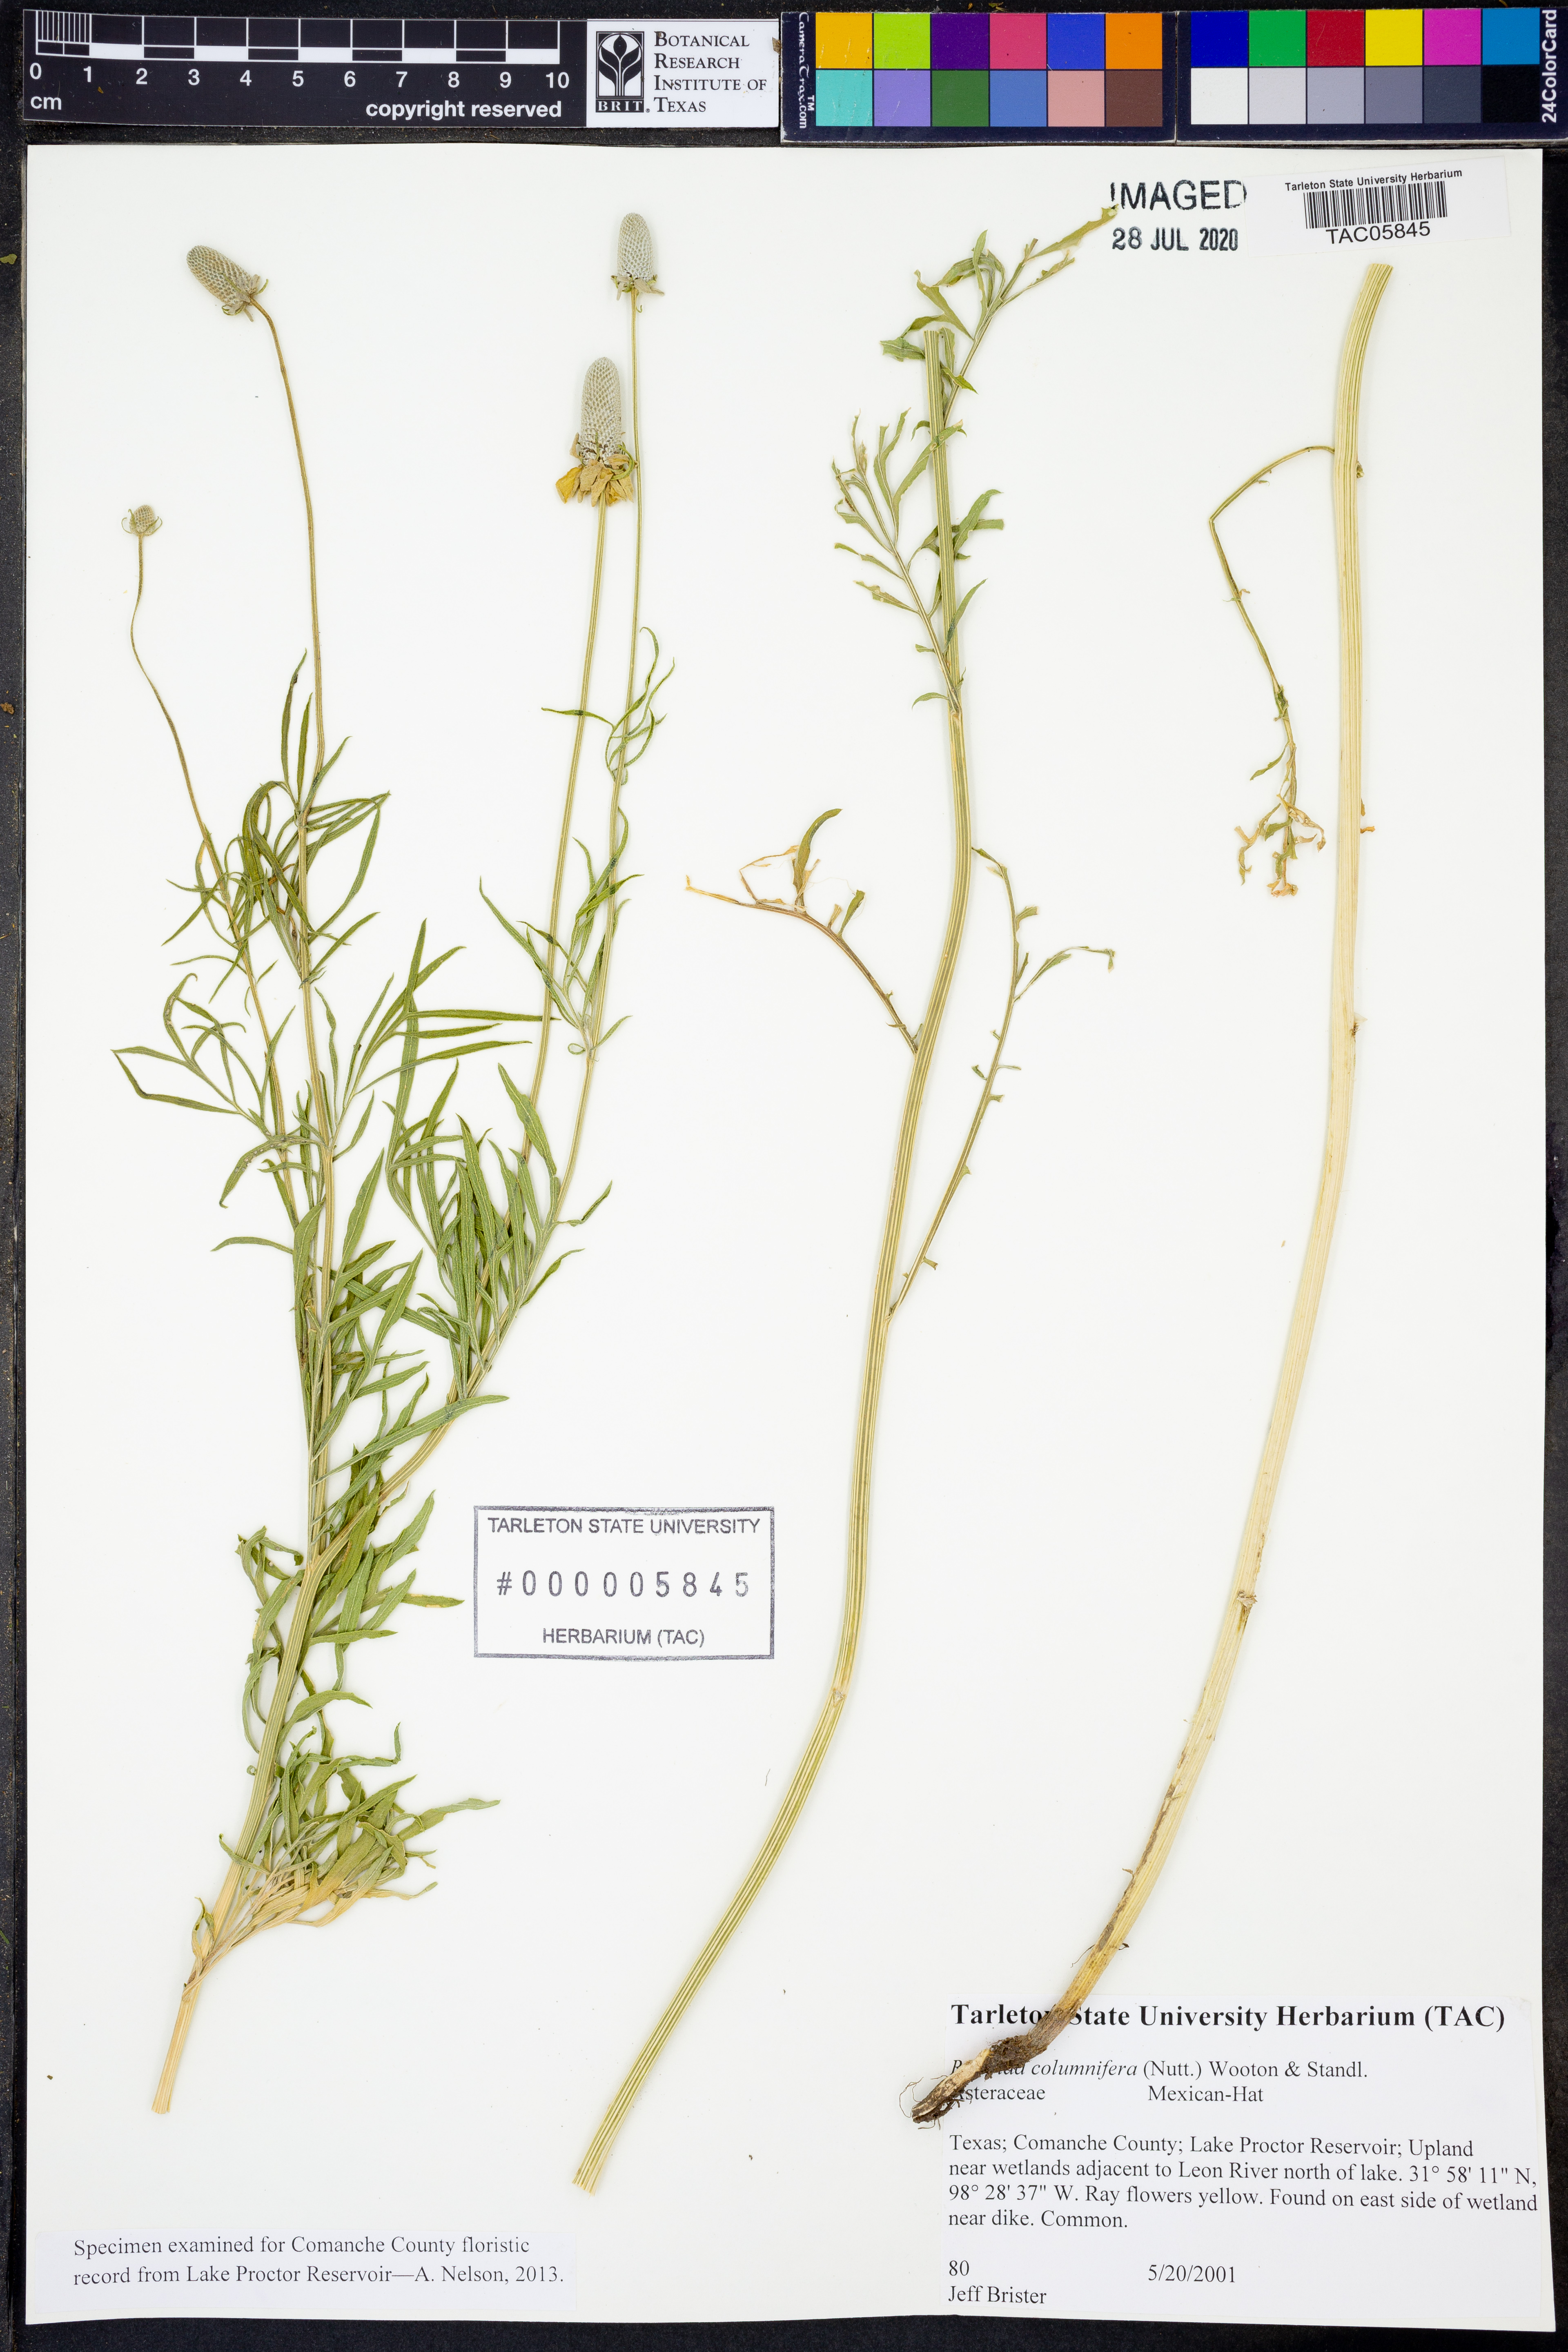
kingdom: Plantae
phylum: Tracheophyta
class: Magnoliopsida
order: Asterales
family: Asteraceae
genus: Ratibida
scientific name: Ratibida columnifera
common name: Prairie coneflower
